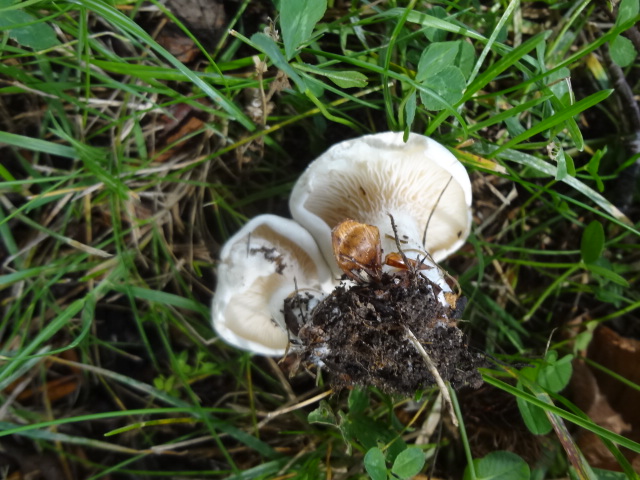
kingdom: Fungi
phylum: Basidiomycota
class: Agaricomycetes
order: Agaricales
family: Entolomataceae
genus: Clitopilus
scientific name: Clitopilus prunulus
